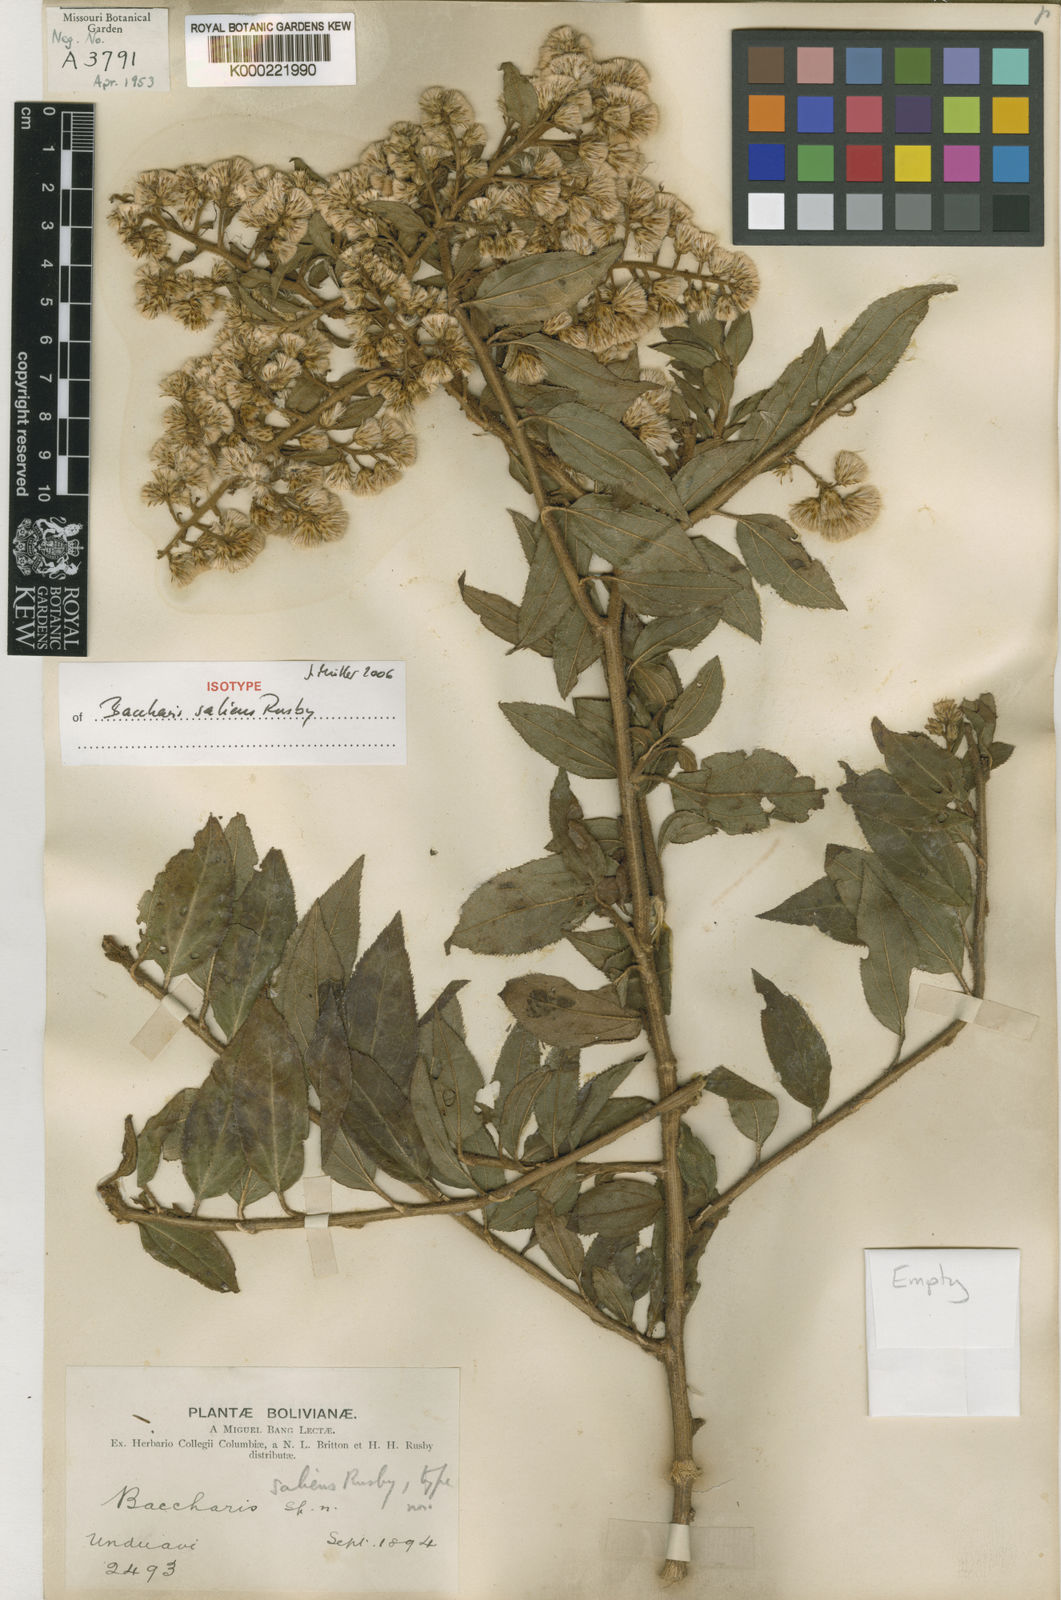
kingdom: Plantae
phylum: Tracheophyta
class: Magnoliopsida
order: Asterales
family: Asteraceae
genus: Baccharis
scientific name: Baccharis saliens
